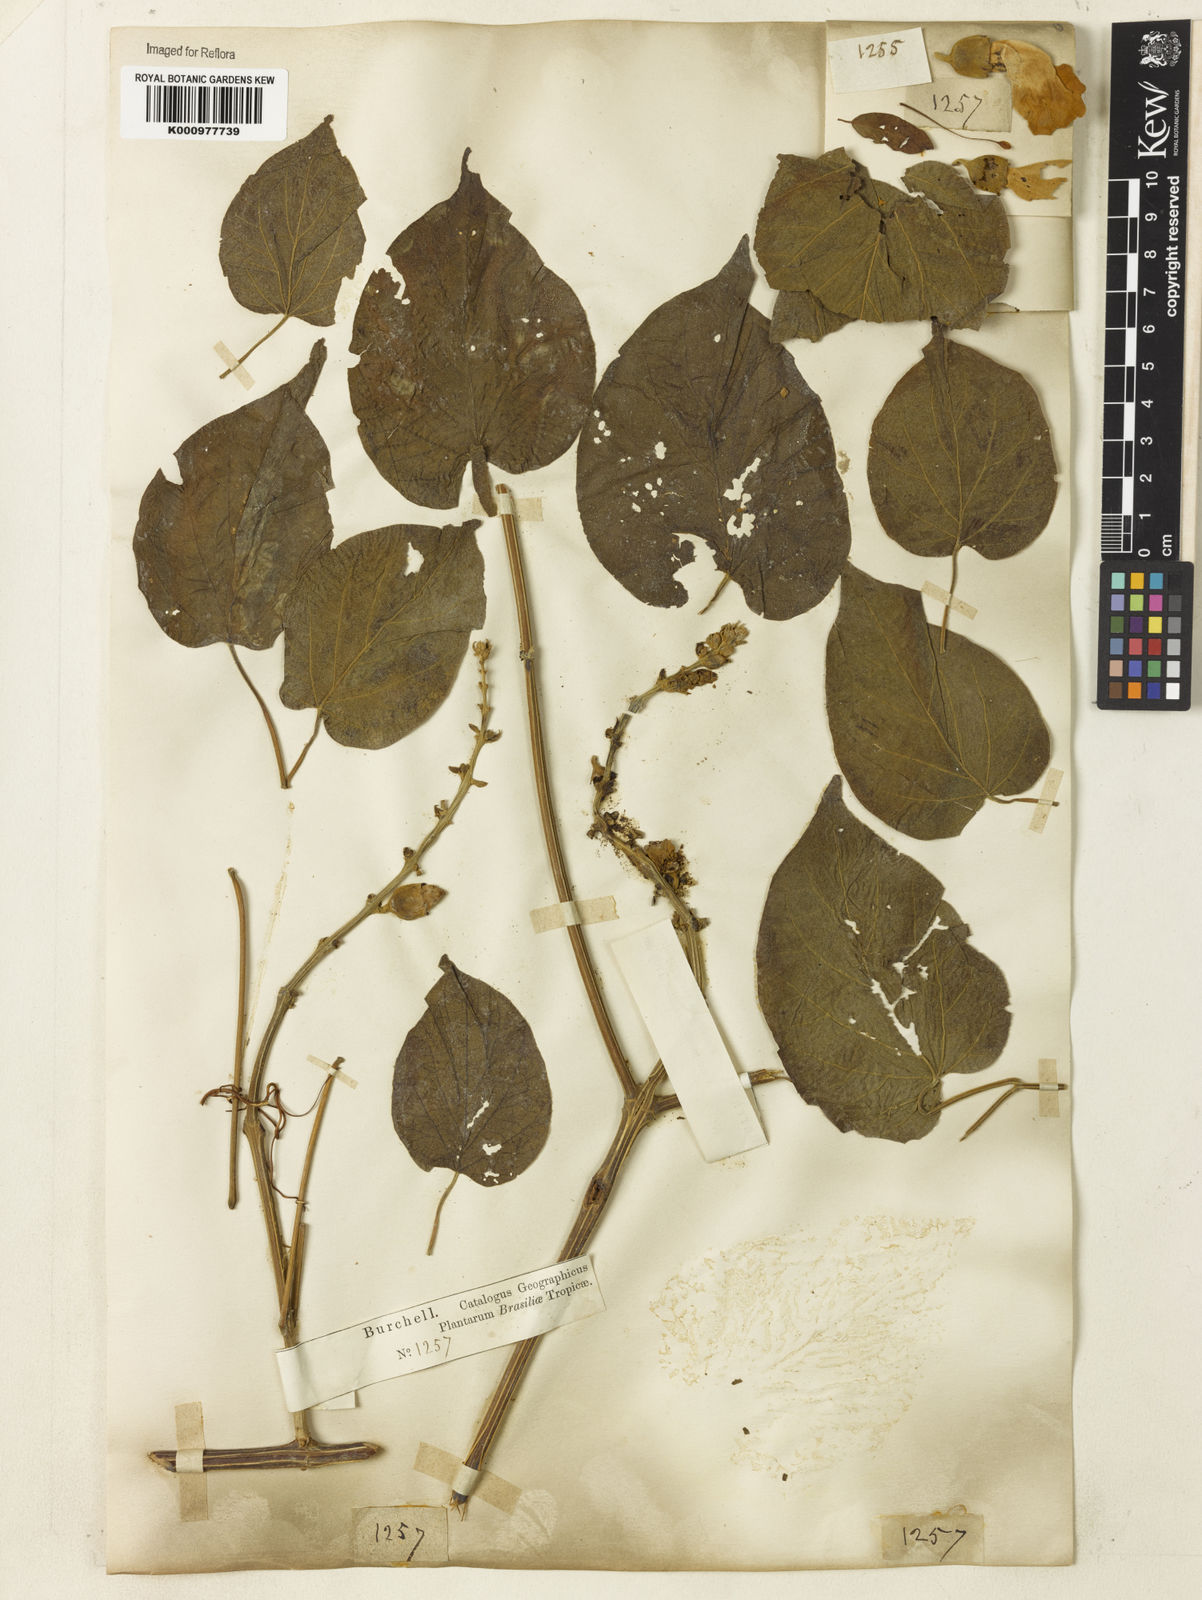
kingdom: Plantae
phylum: Tracheophyta
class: Magnoliopsida
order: Lamiales
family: Bignoniaceae
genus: Amphilophium
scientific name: Amphilophium crucigerum
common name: Monkey comb
